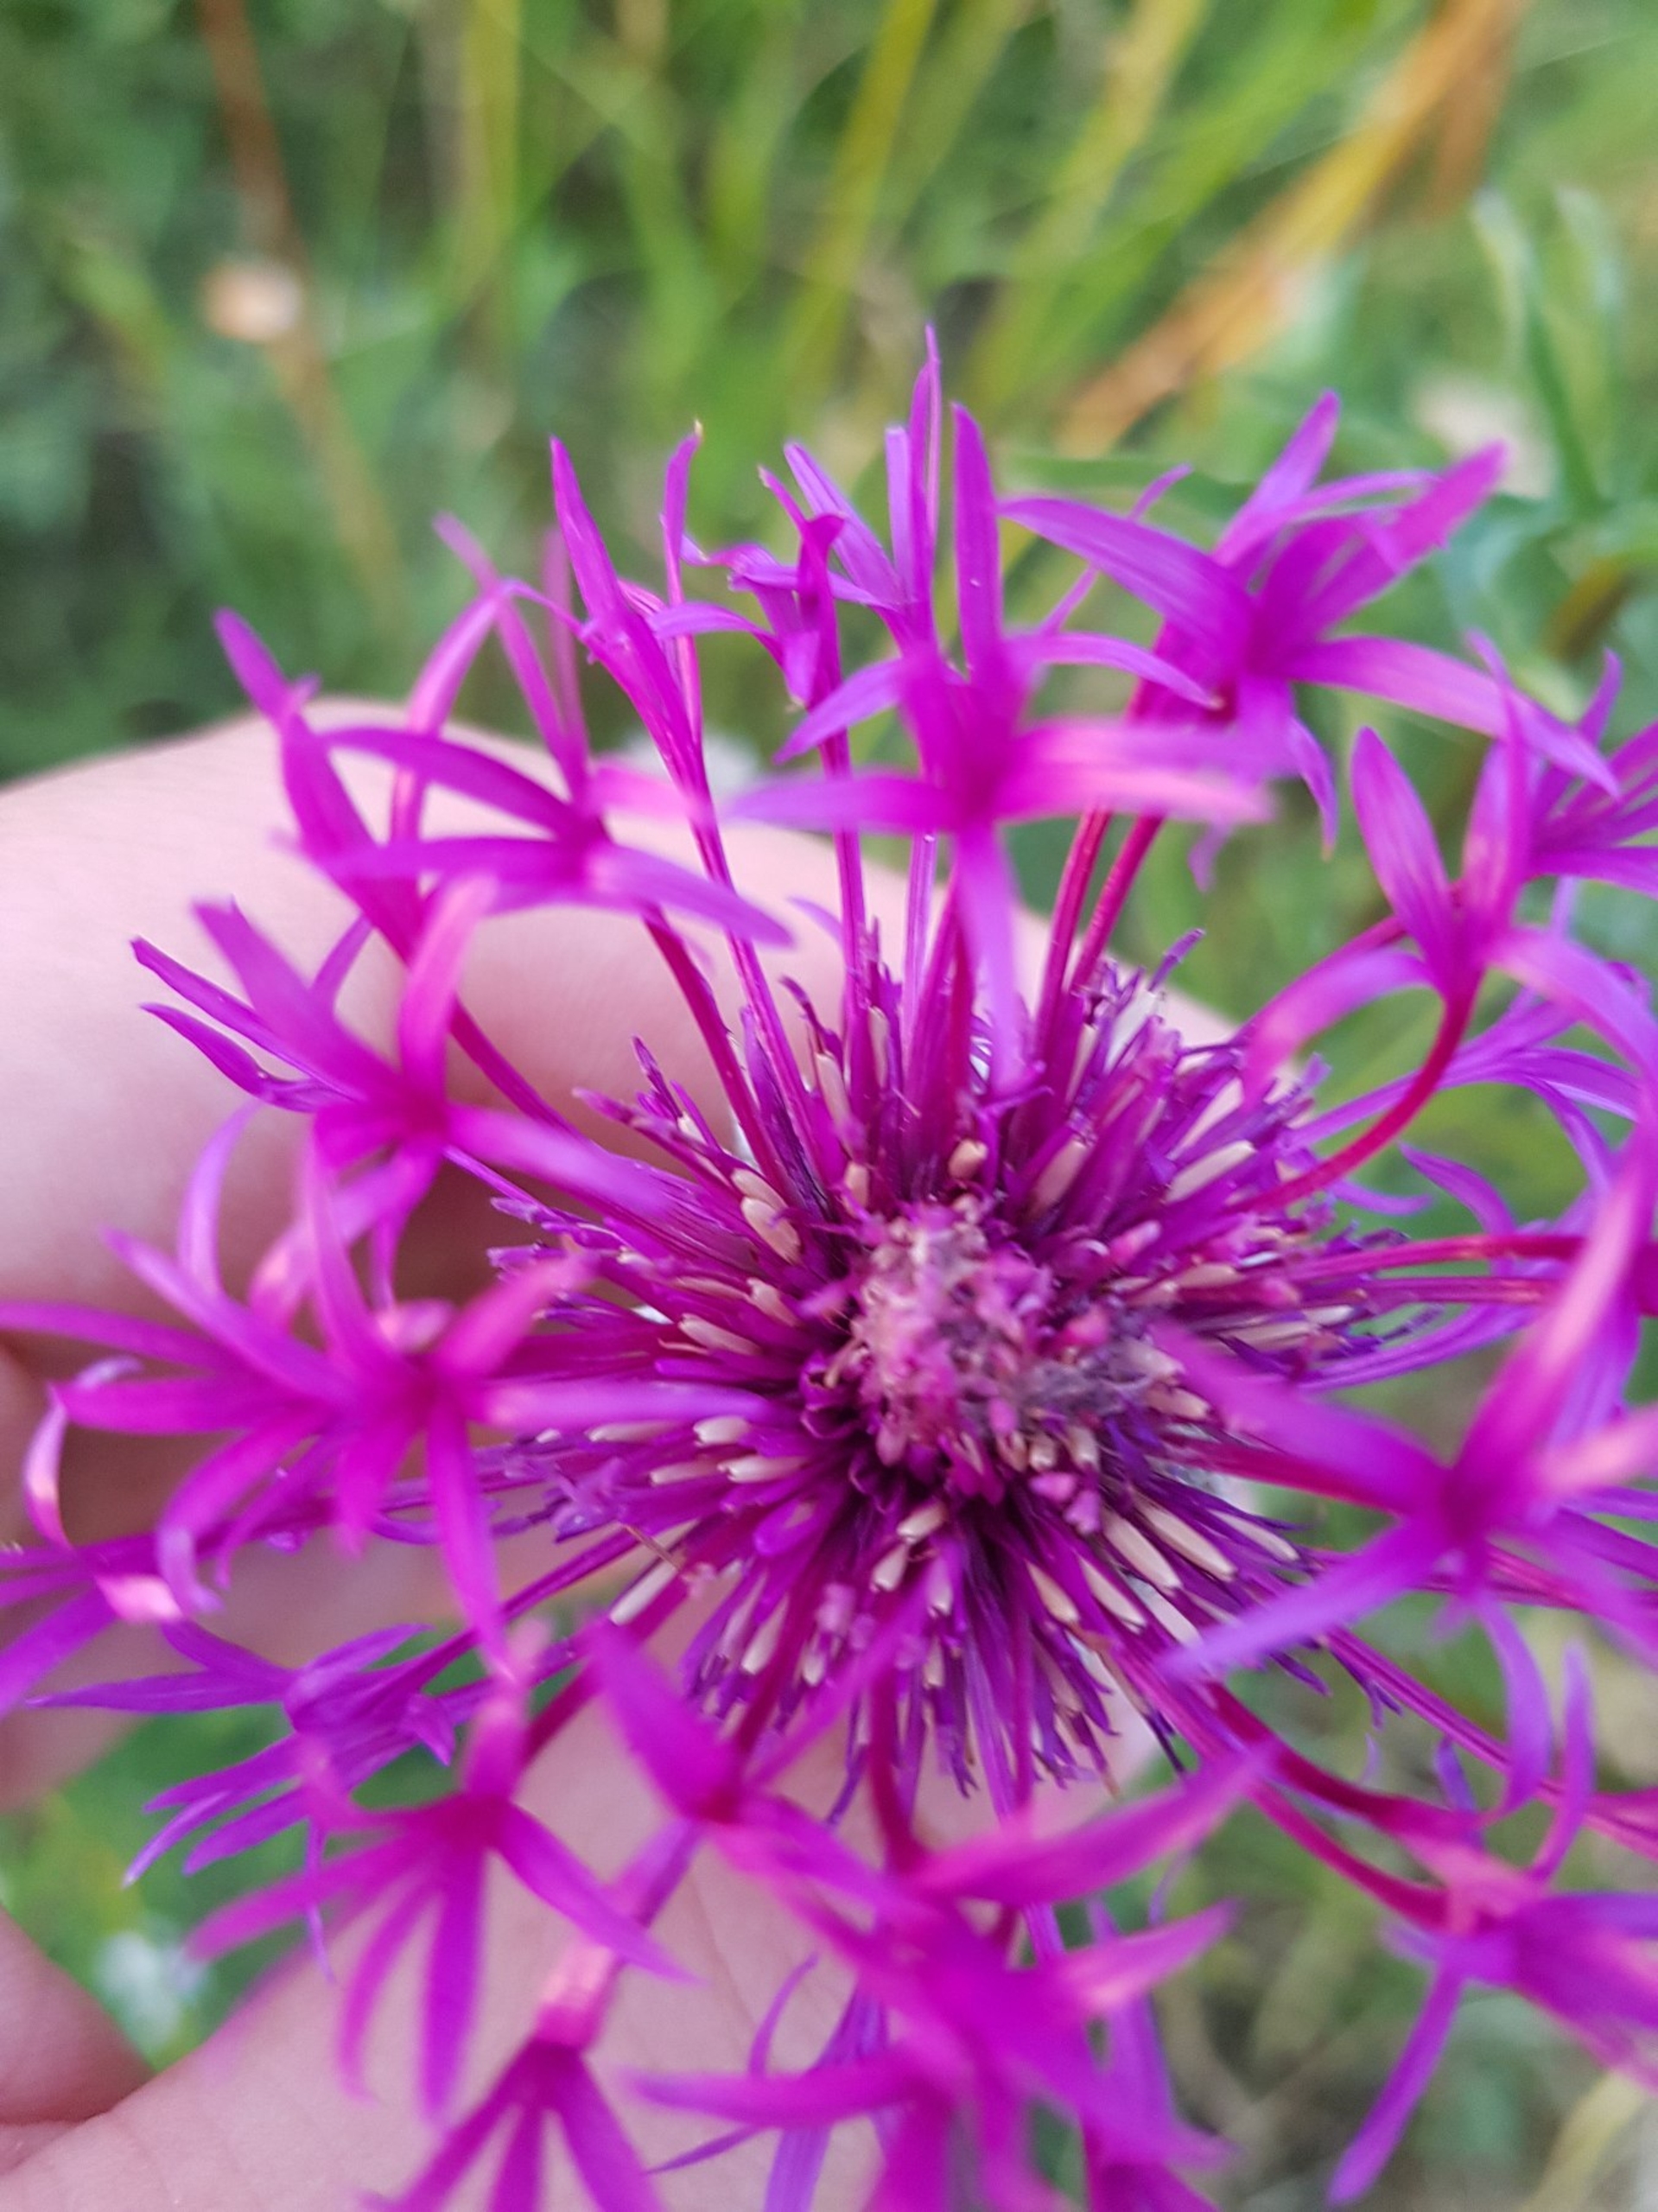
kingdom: Plantae
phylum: Tracheophyta
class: Magnoliopsida
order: Asterales
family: Asteraceae
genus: Centaurea
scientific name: Centaurea scabiosa
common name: Stor knopurt
